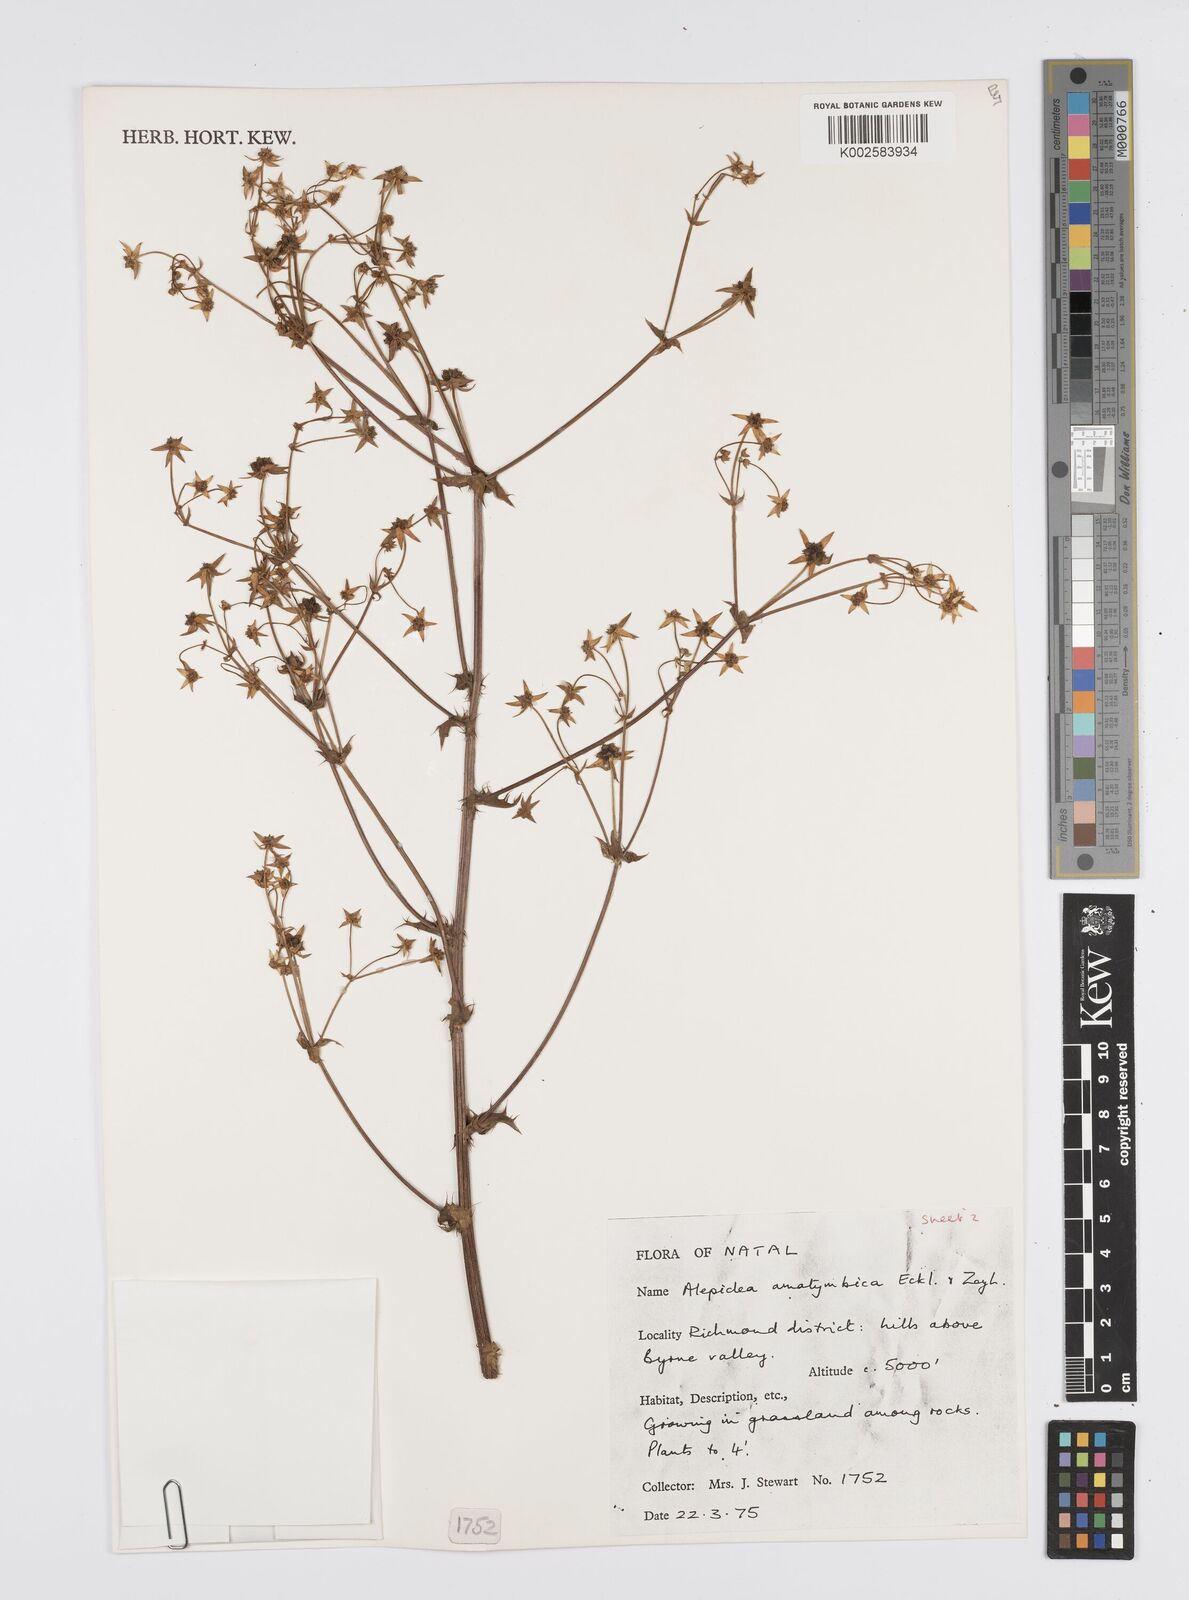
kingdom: Plantae
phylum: Tracheophyta
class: Magnoliopsida
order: Apiales
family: Apiaceae
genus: Alepidea
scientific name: Alepidea amatymbica
